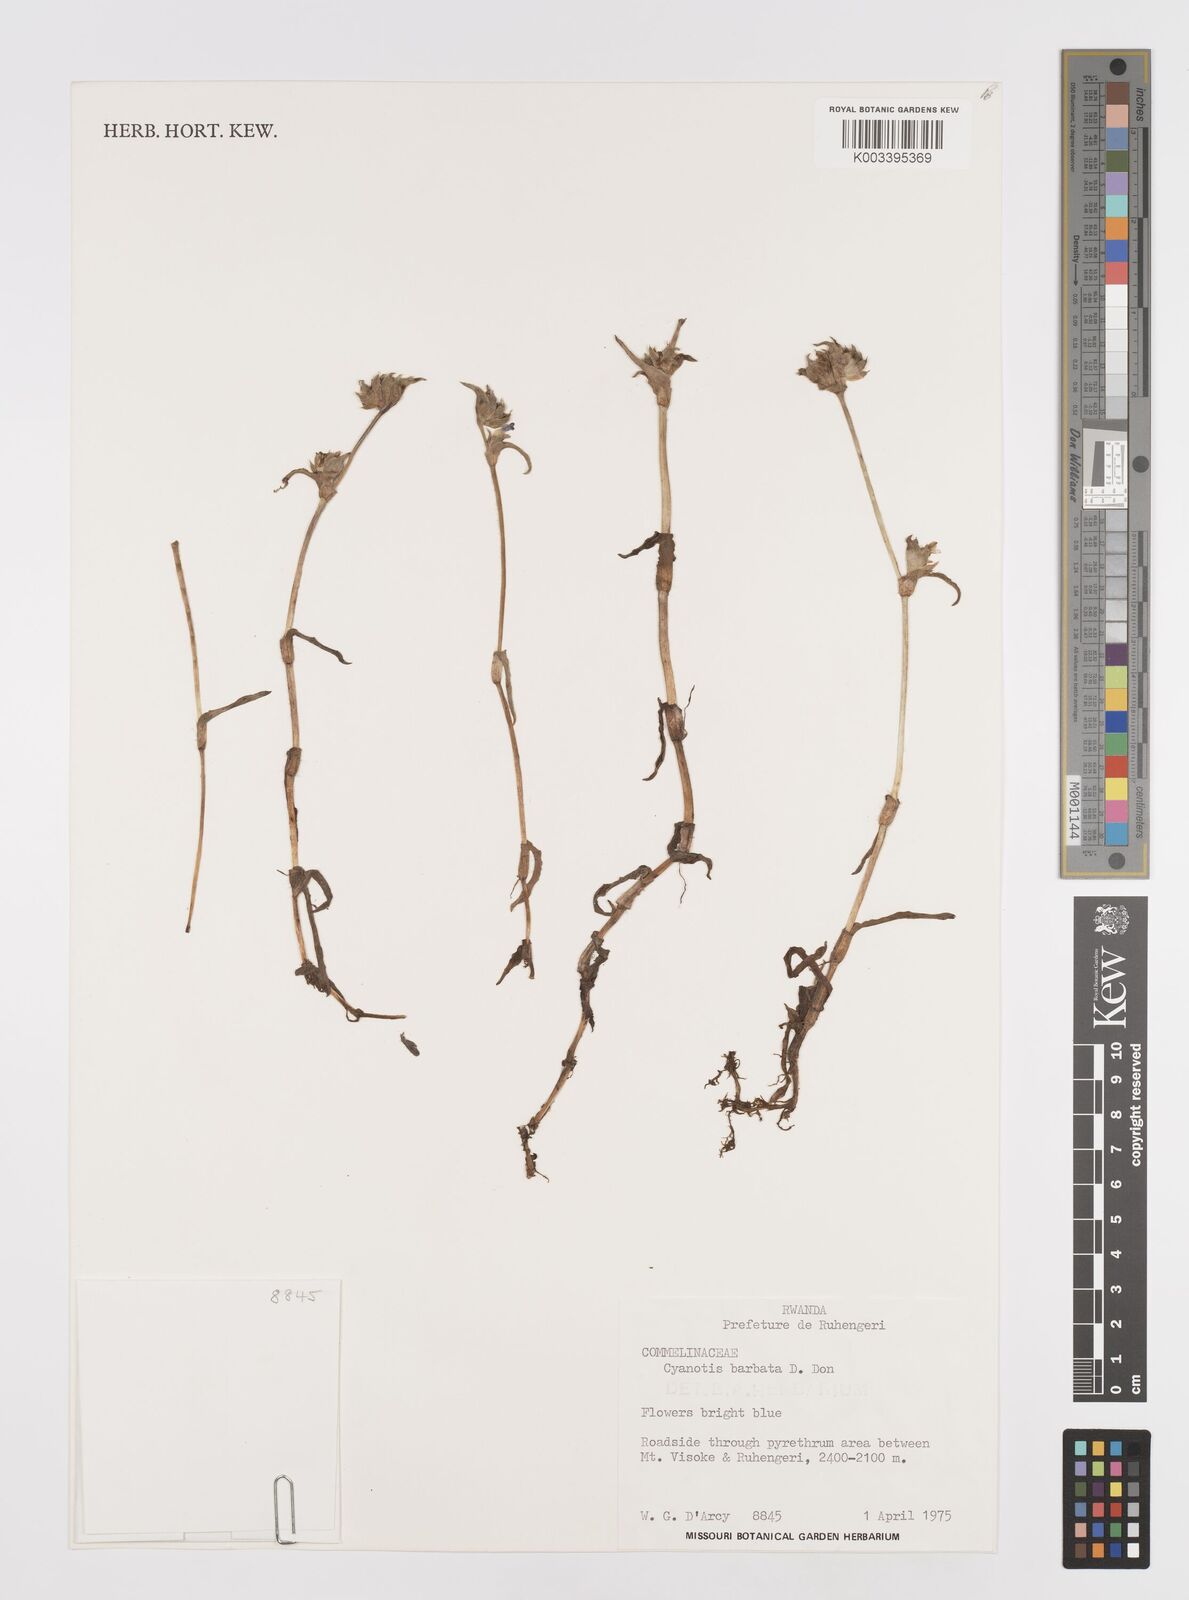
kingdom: Plantae
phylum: Tracheophyta
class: Liliopsida
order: Commelinales
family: Commelinaceae
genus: Cyanotis
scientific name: Cyanotis vaga
